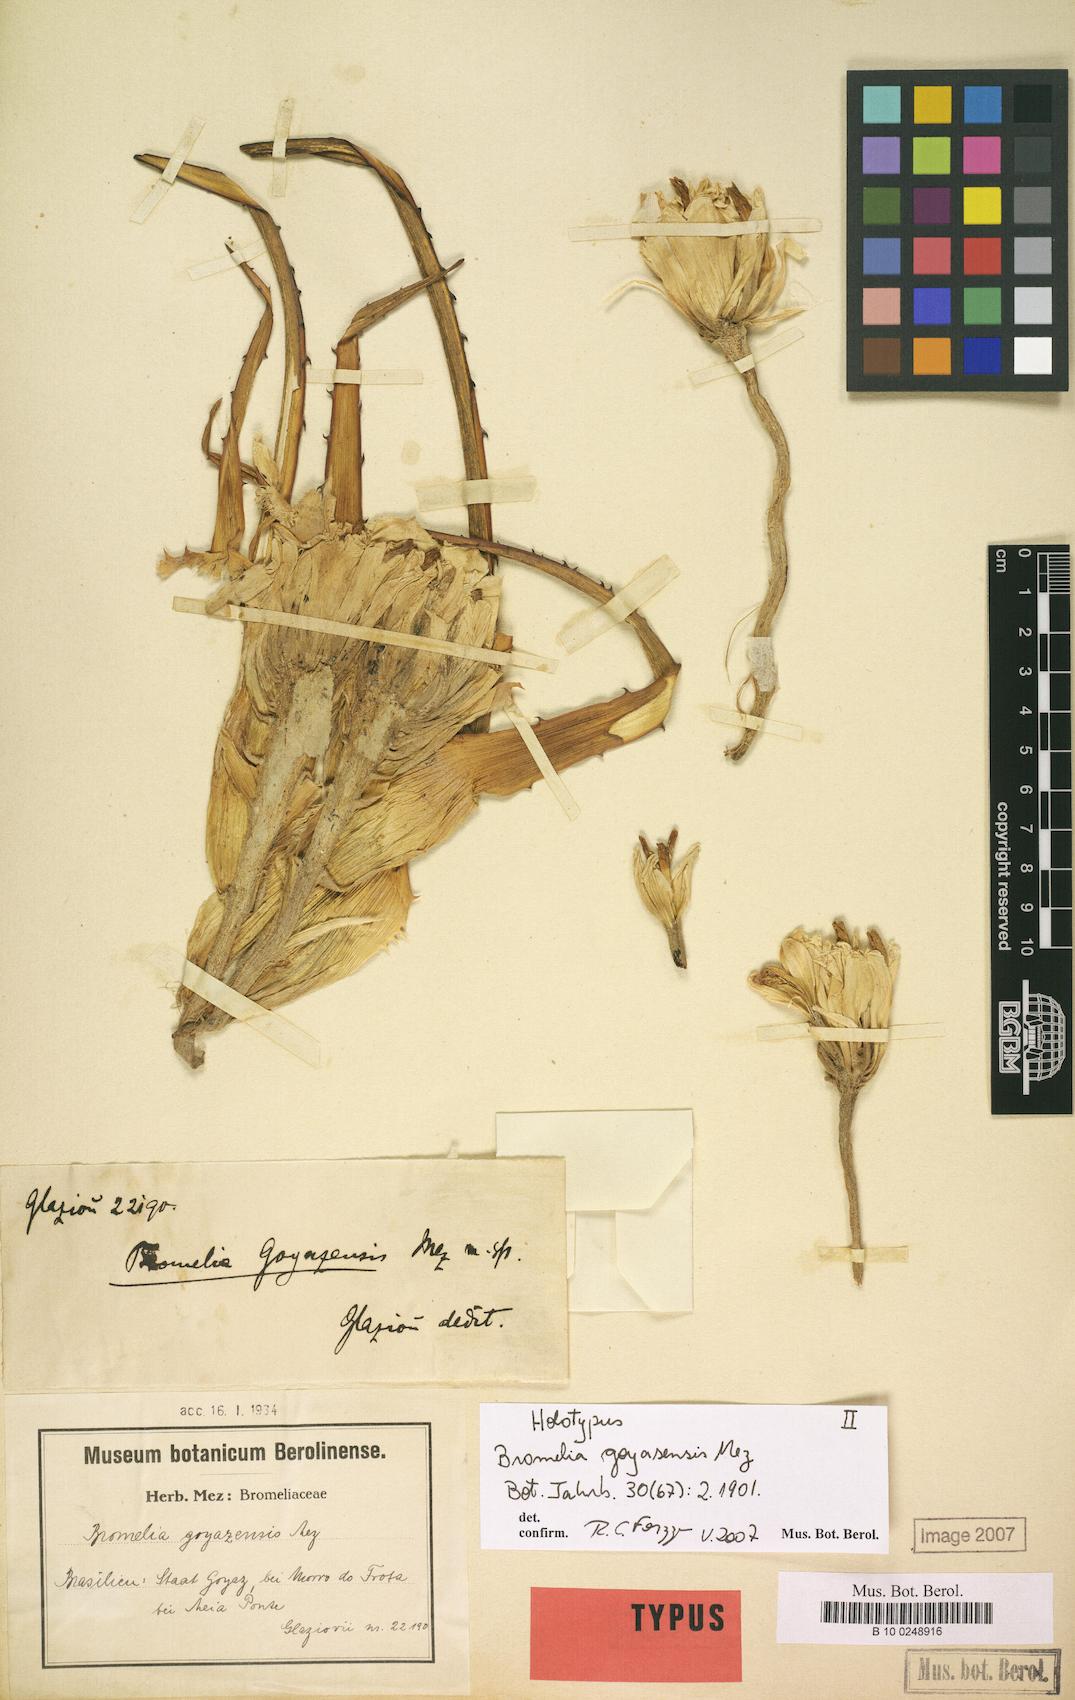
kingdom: Plantae
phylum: Tracheophyta
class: Liliopsida
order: Poales
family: Bromeliaceae
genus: Bromelia
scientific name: Bromelia goyazensis
